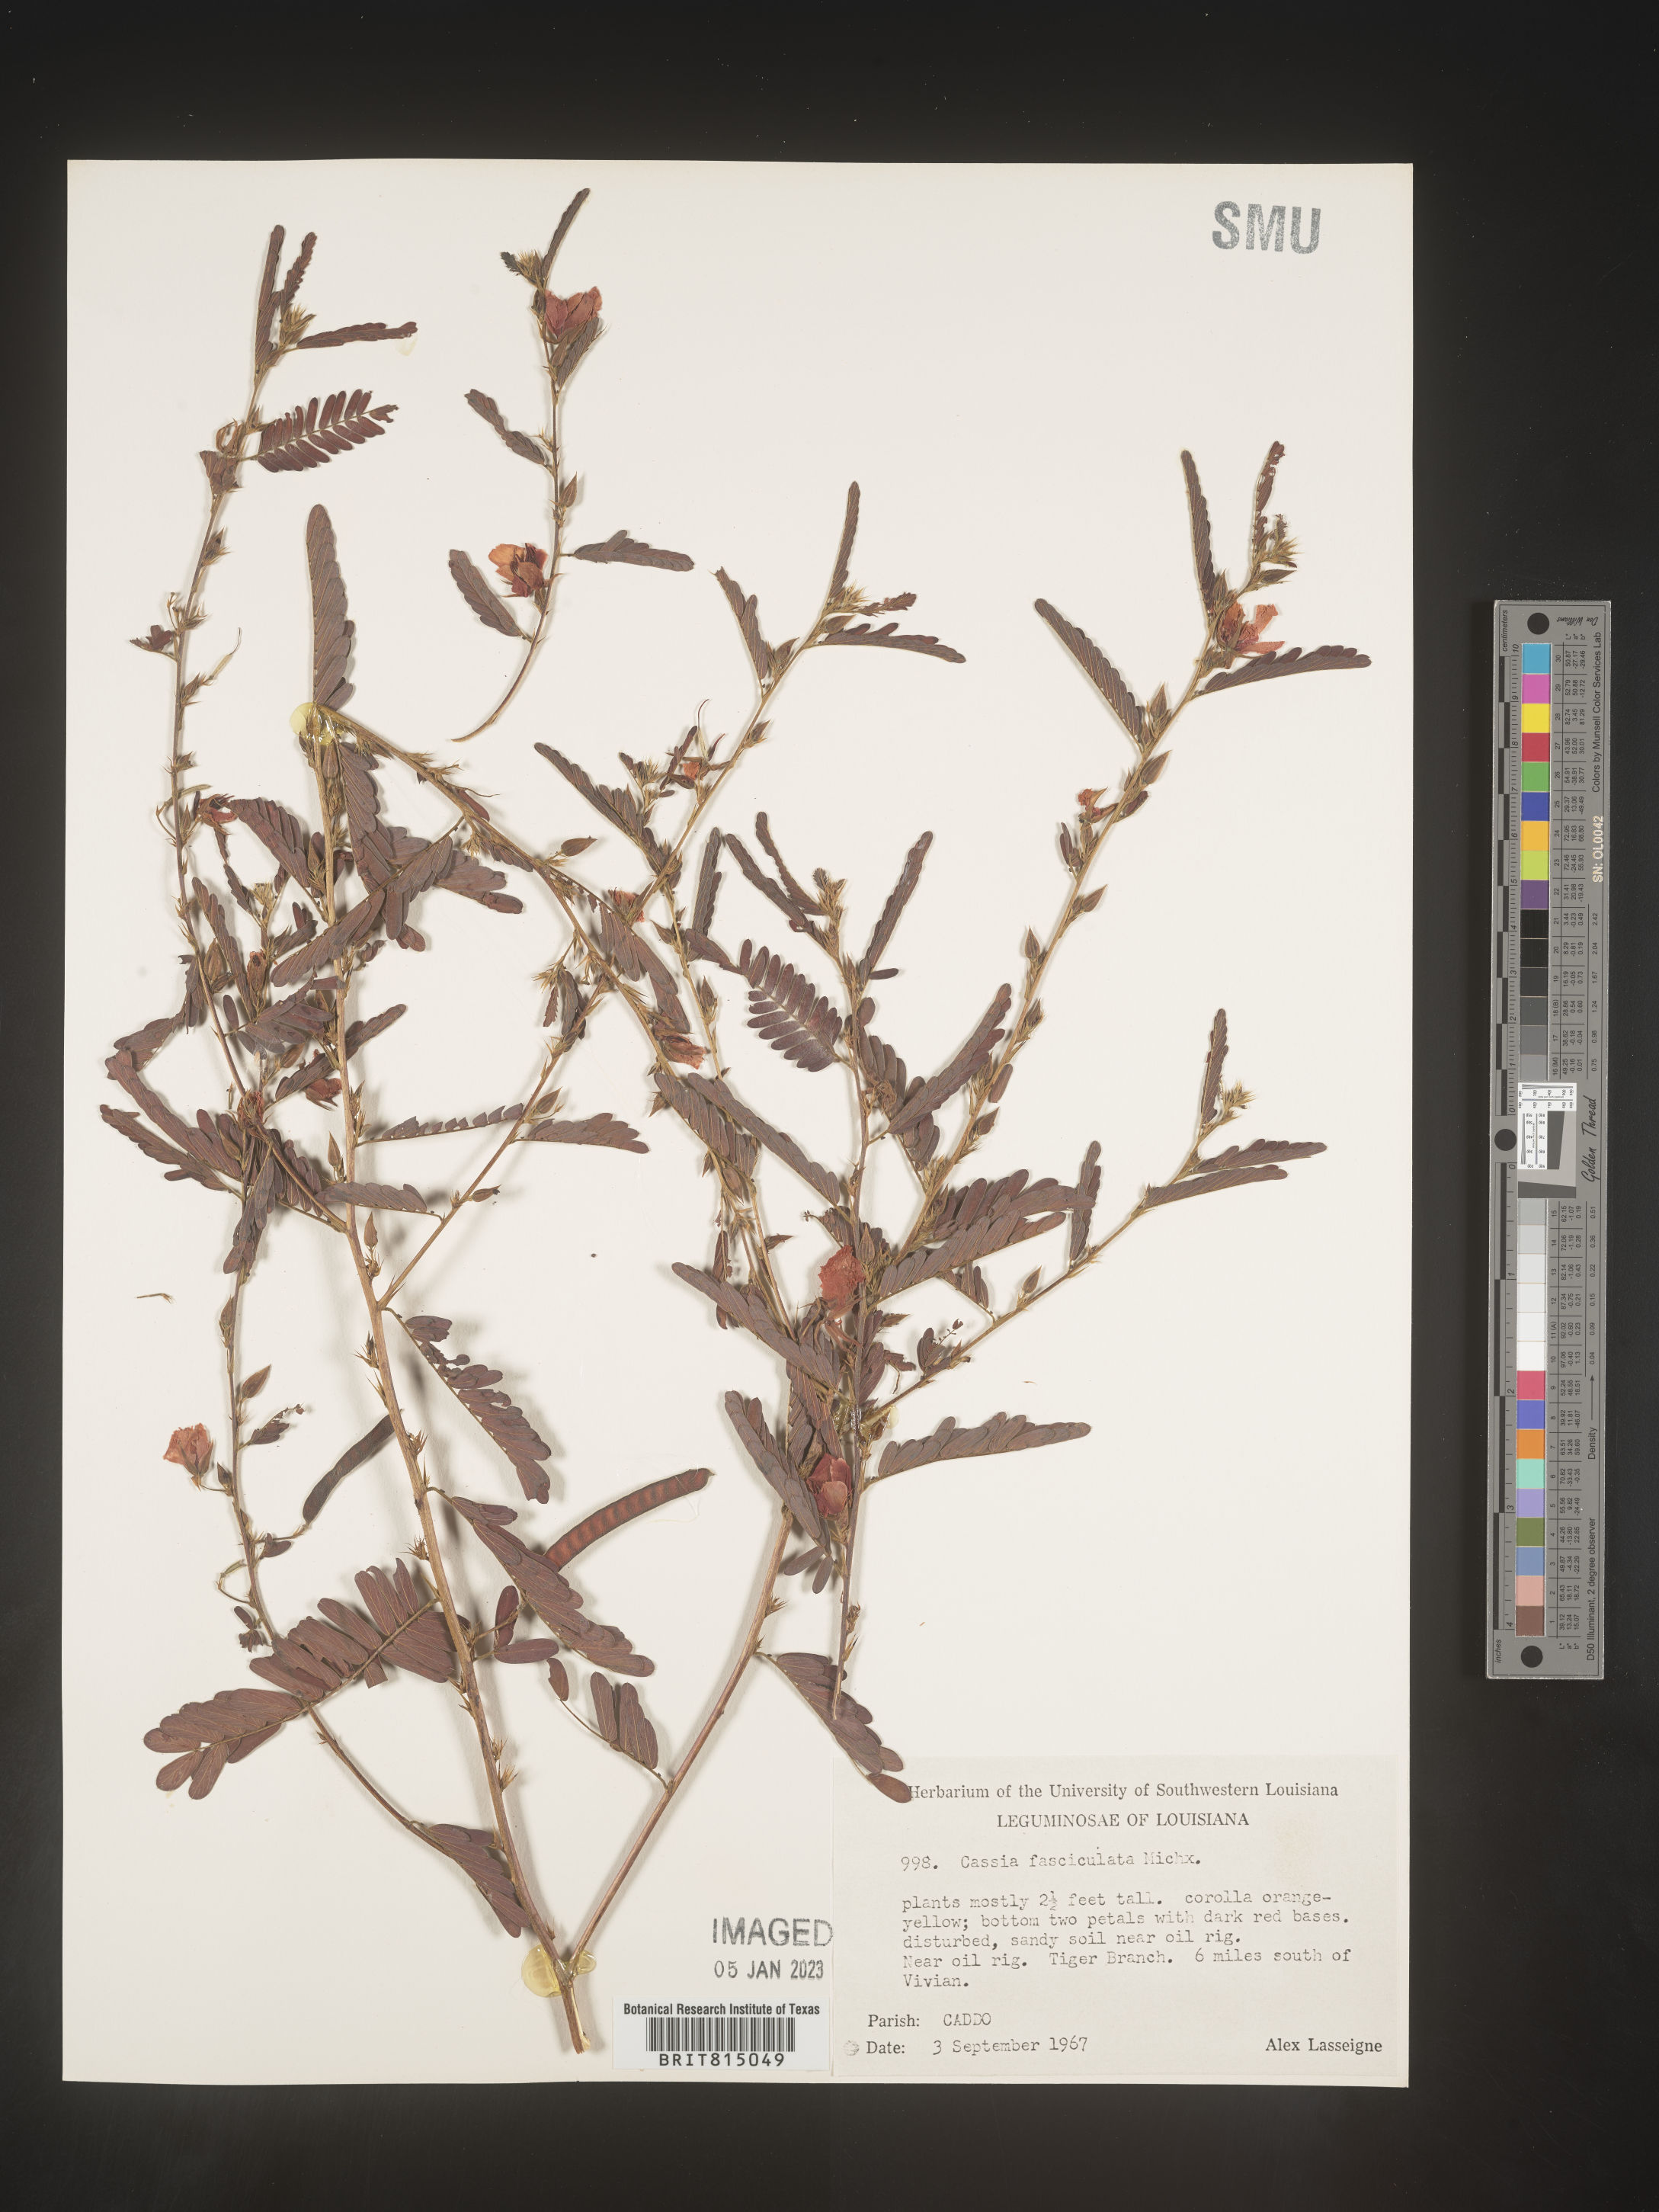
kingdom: Plantae
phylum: Tracheophyta
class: Magnoliopsida
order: Fabales
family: Fabaceae
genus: Chamaecrista
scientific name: Chamaecrista fasciculata
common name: Golden cassia
